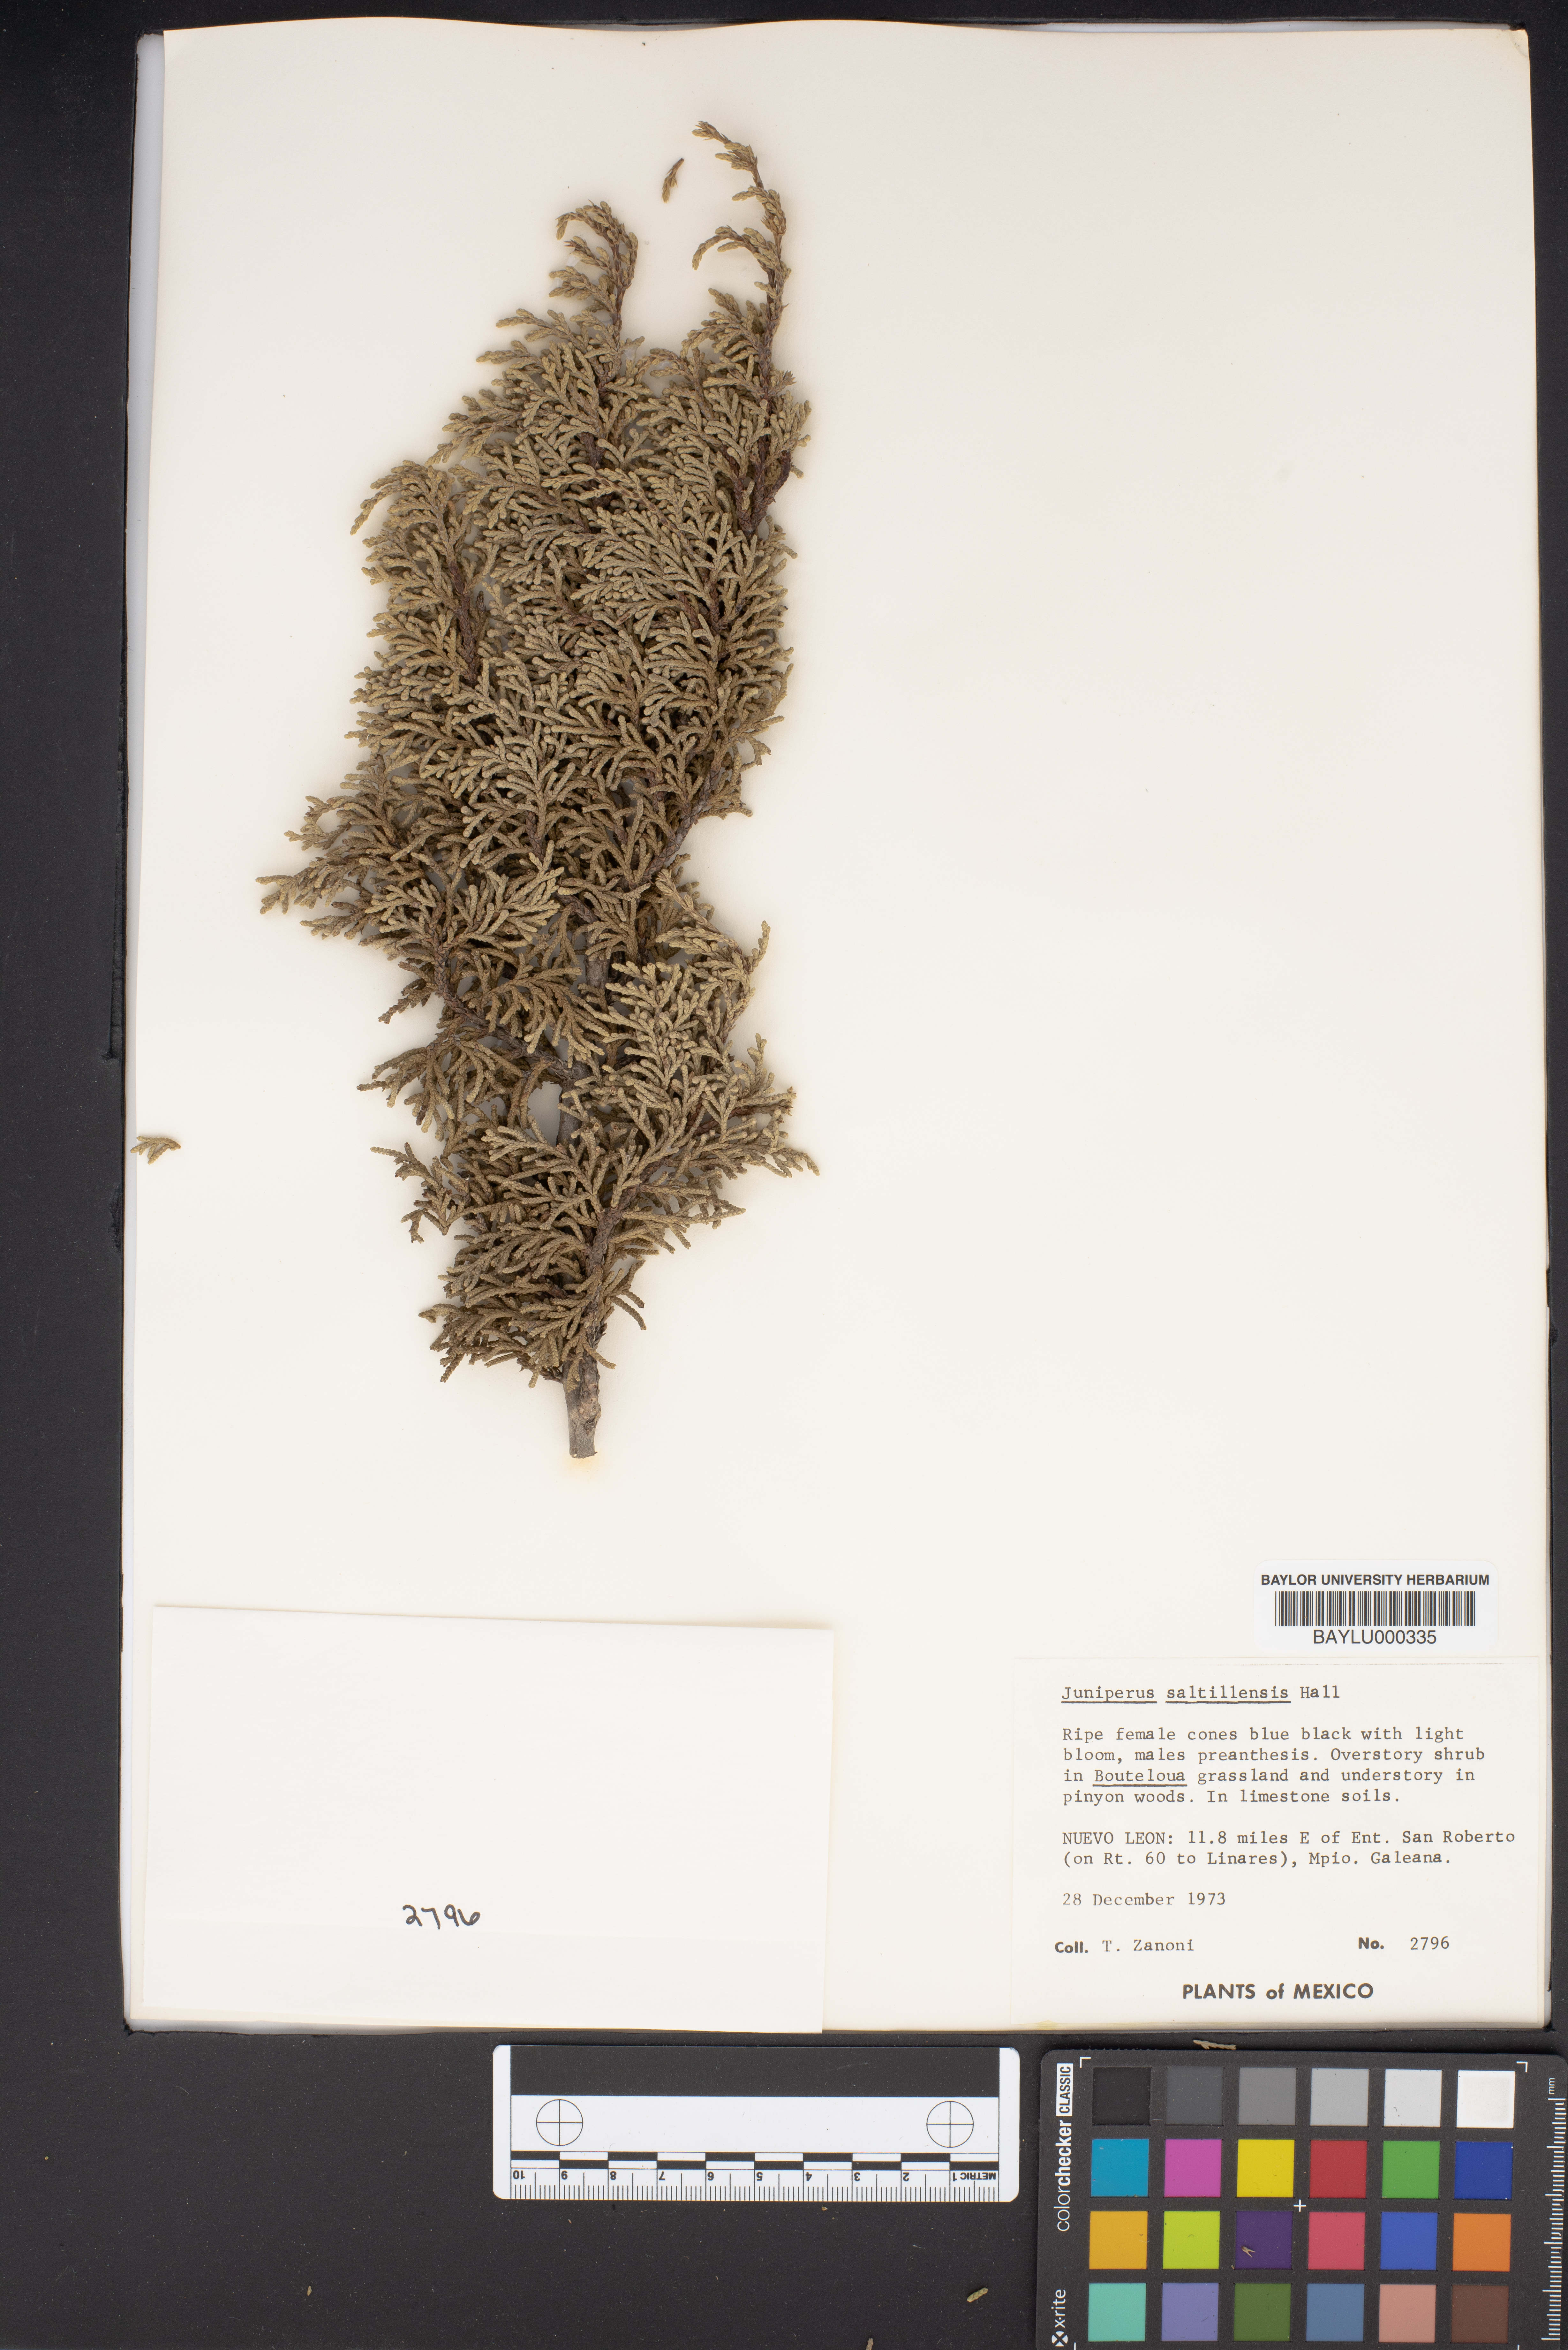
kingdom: Plantae
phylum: Tracheophyta
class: Pinopsida
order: Pinales
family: Cupressaceae
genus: Juniperus
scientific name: Juniperus saltillensis
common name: Saltillo juniper
